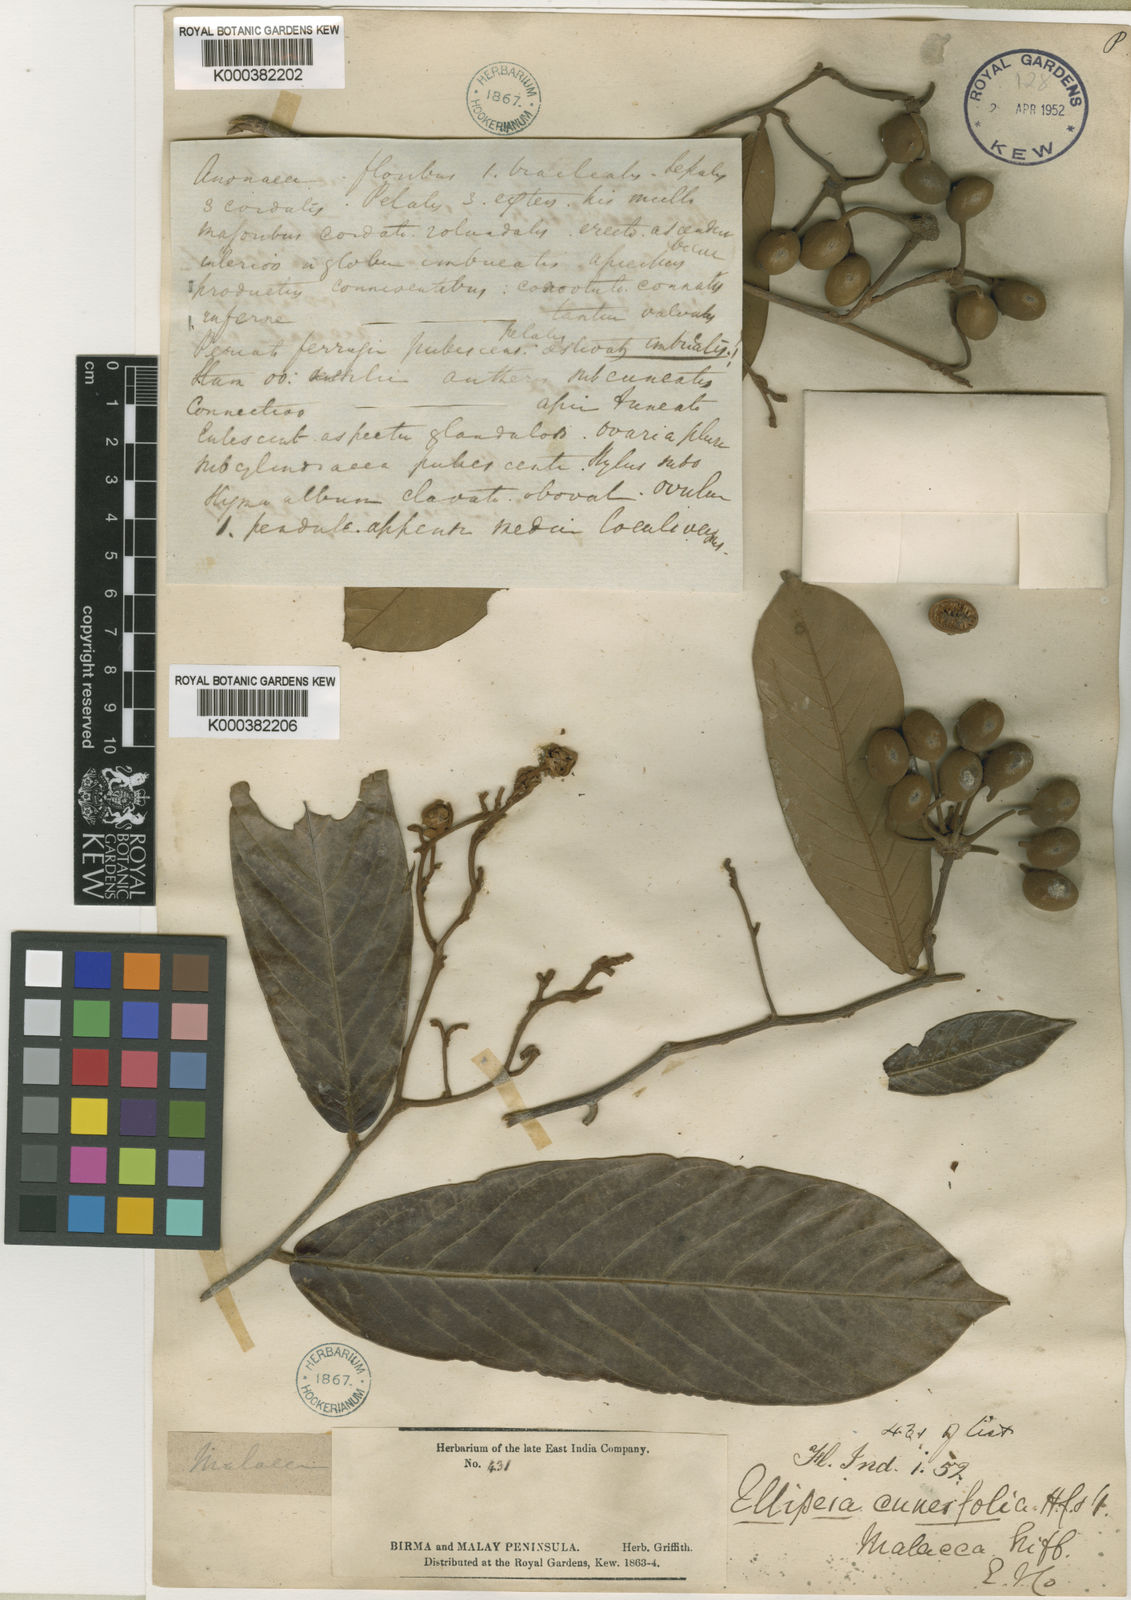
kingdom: Plantae
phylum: Tracheophyta
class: Magnoliopsida
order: Magnoliales
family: Annonaceae
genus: Uvaria
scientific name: Uvaria cuneifolia
